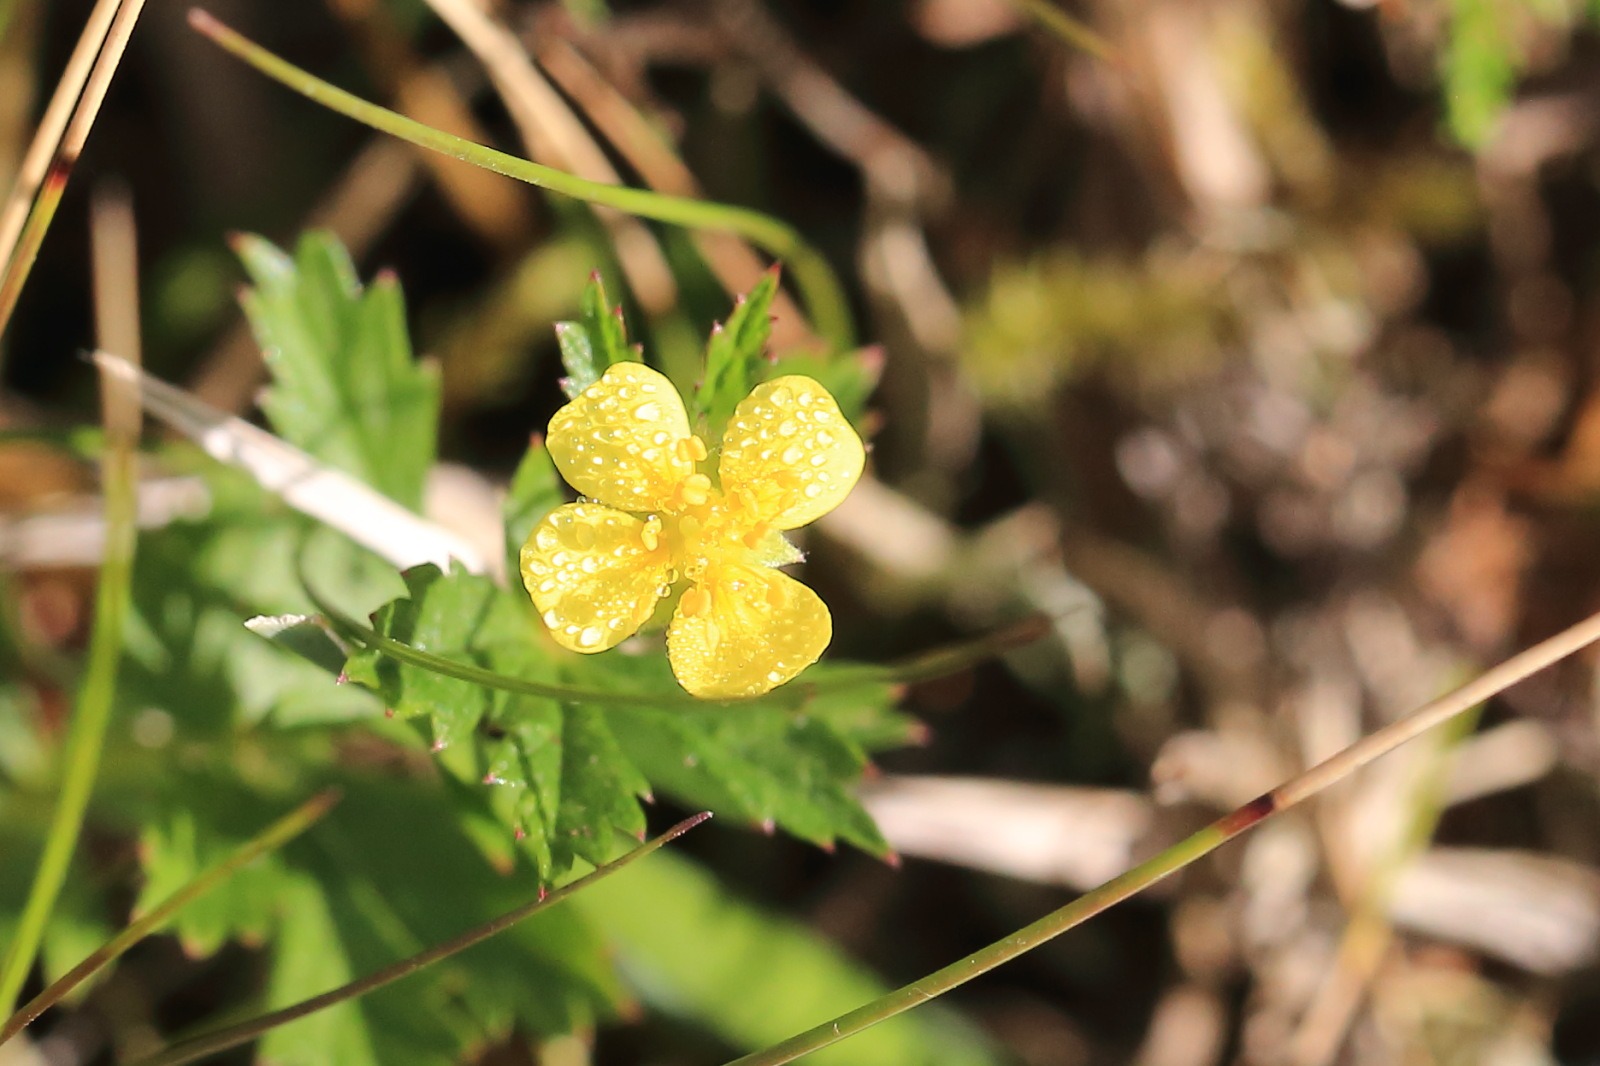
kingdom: Plantae
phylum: Tracheophyta
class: Magnoliopsida
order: Rosales
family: Rosaceae
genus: Potentilla
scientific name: Potentilla erecta
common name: Tormentil
